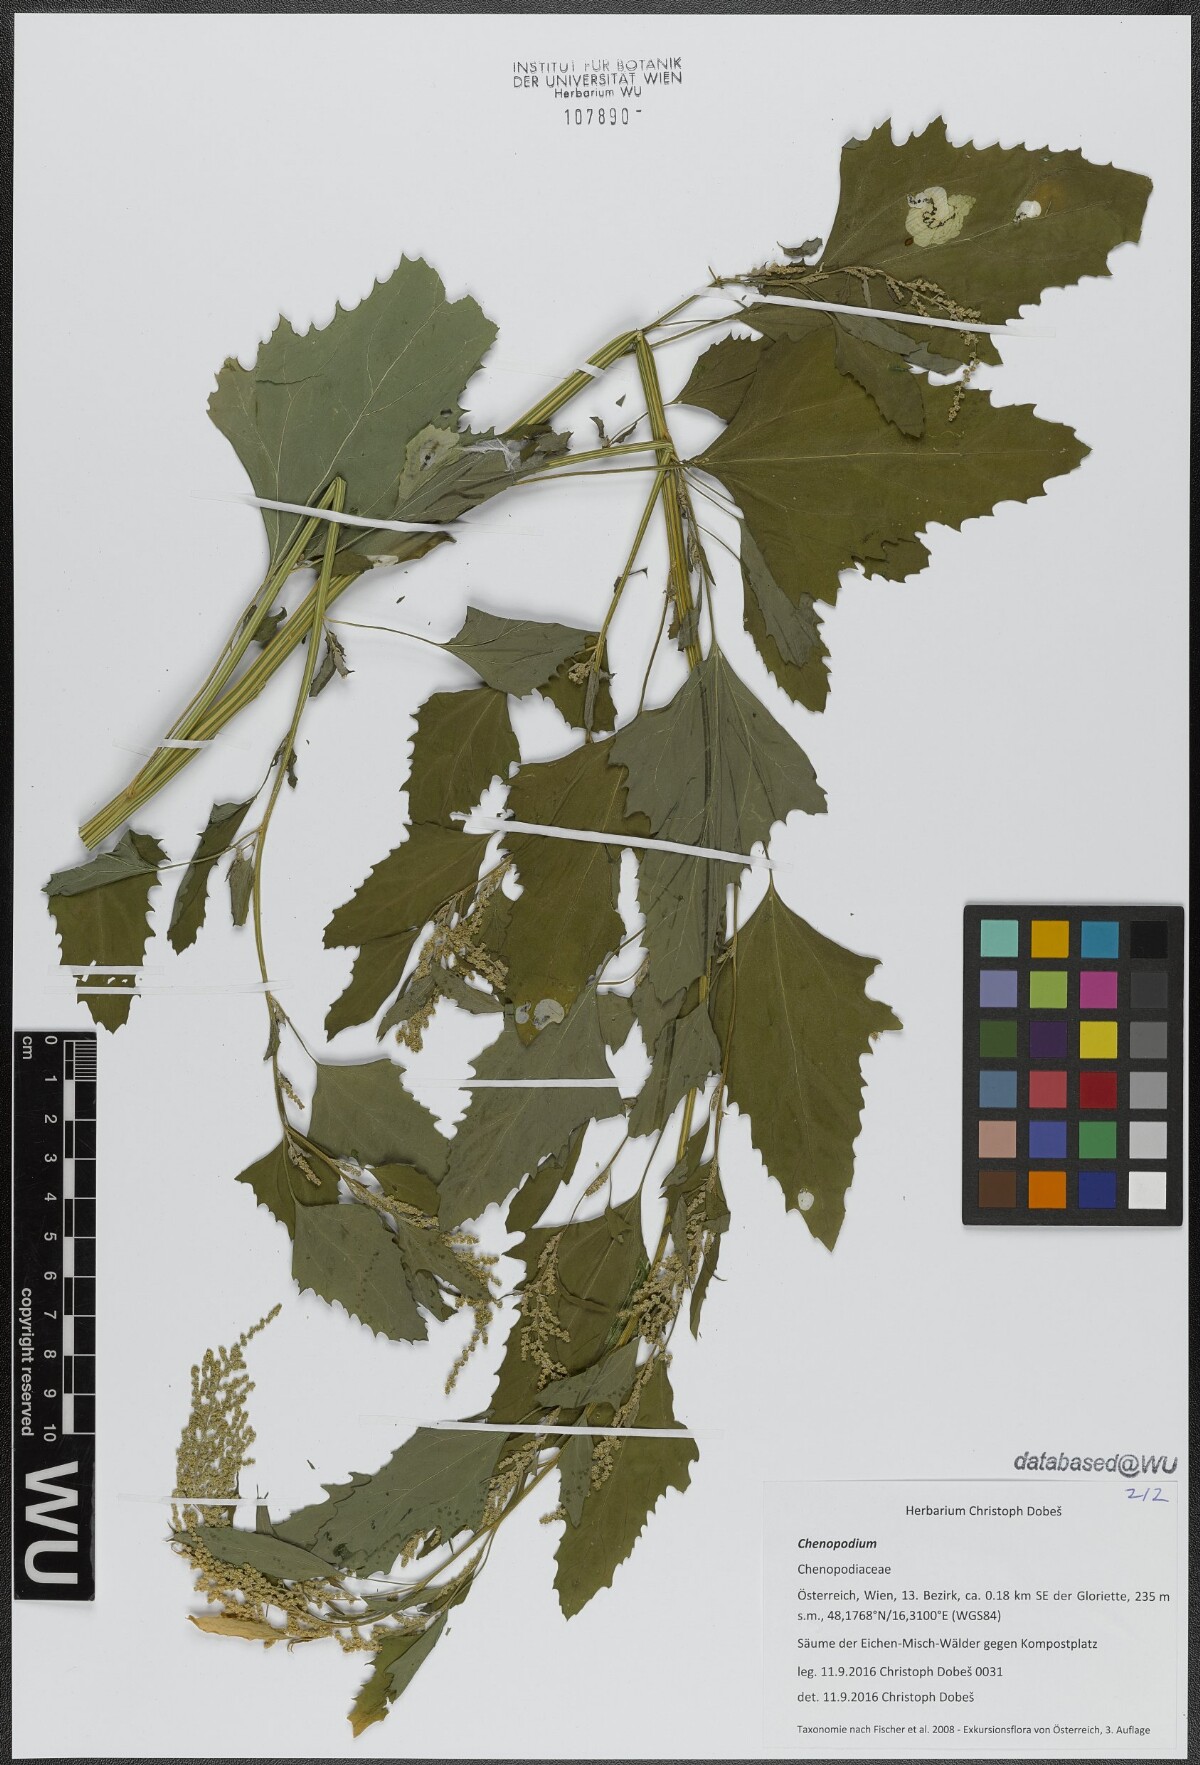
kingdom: Plantae
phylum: Tracheophyta
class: Magnoliopsida
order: Caryophyllales
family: Amaranthaceae
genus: Chenopodium
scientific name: Chenopodium
